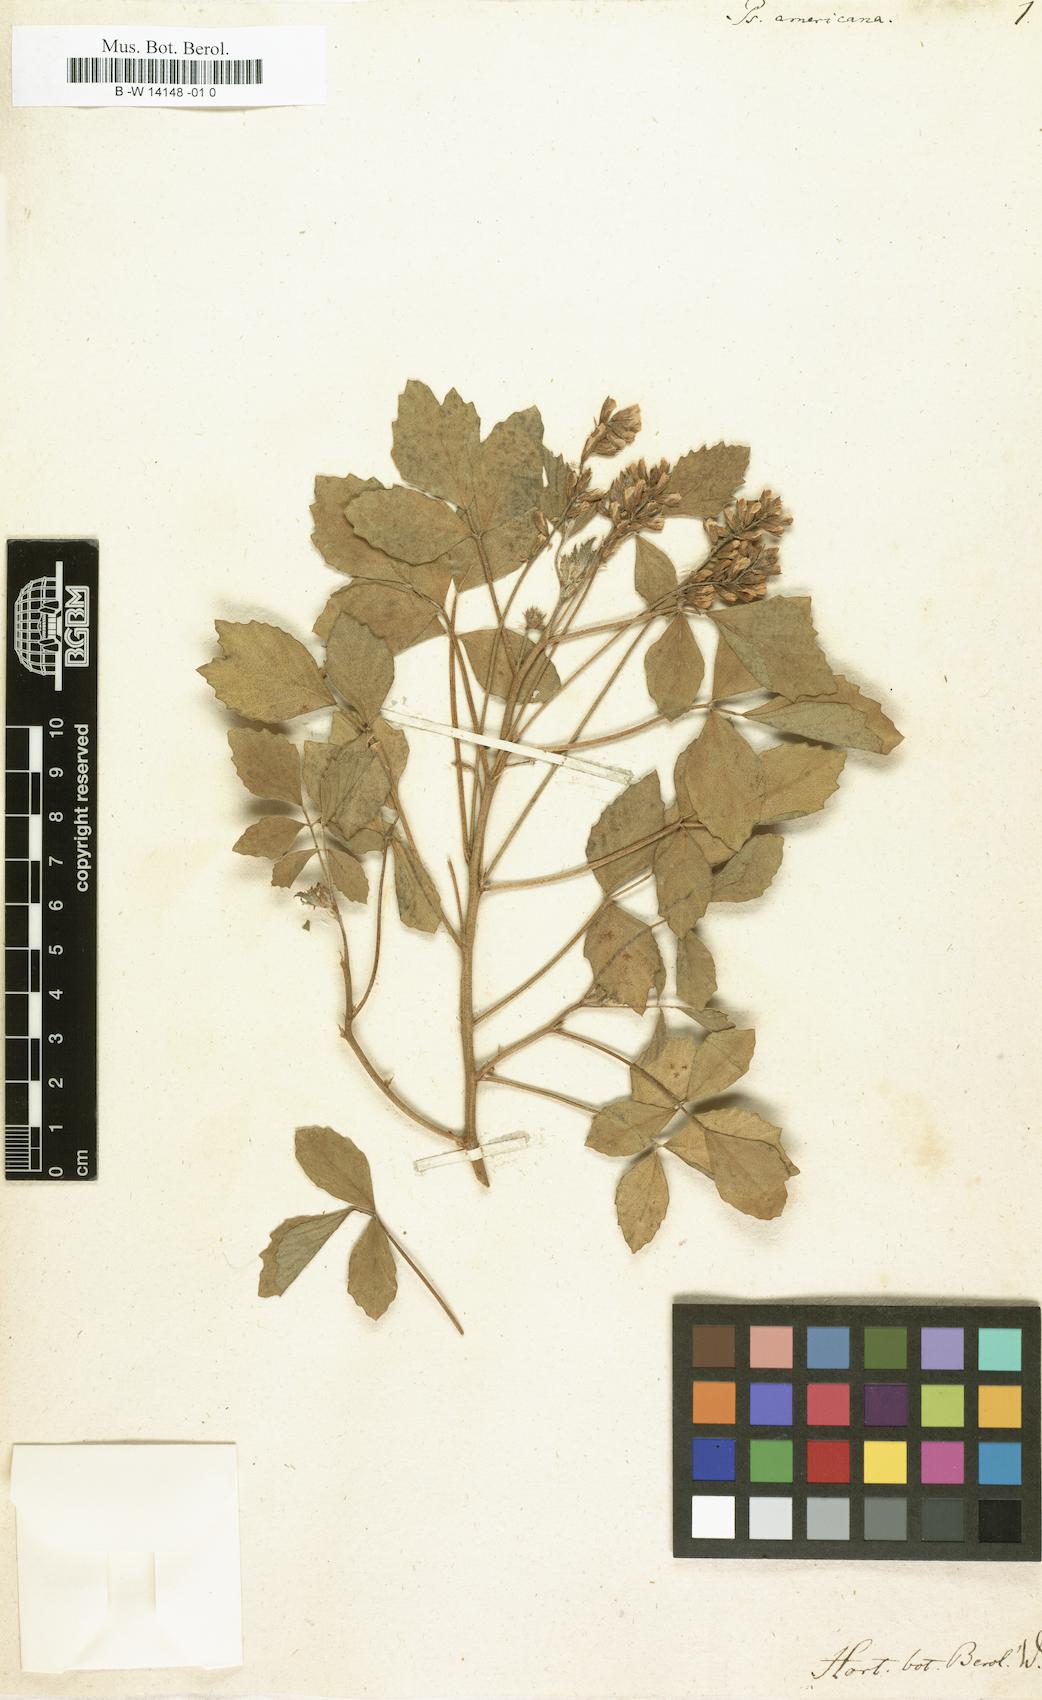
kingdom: Plantae
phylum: Tracheophyta
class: Magnoliopsida
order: Fabales
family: Fabaceae
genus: Cullen
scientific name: Cullen americanum
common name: Scurfy pea
